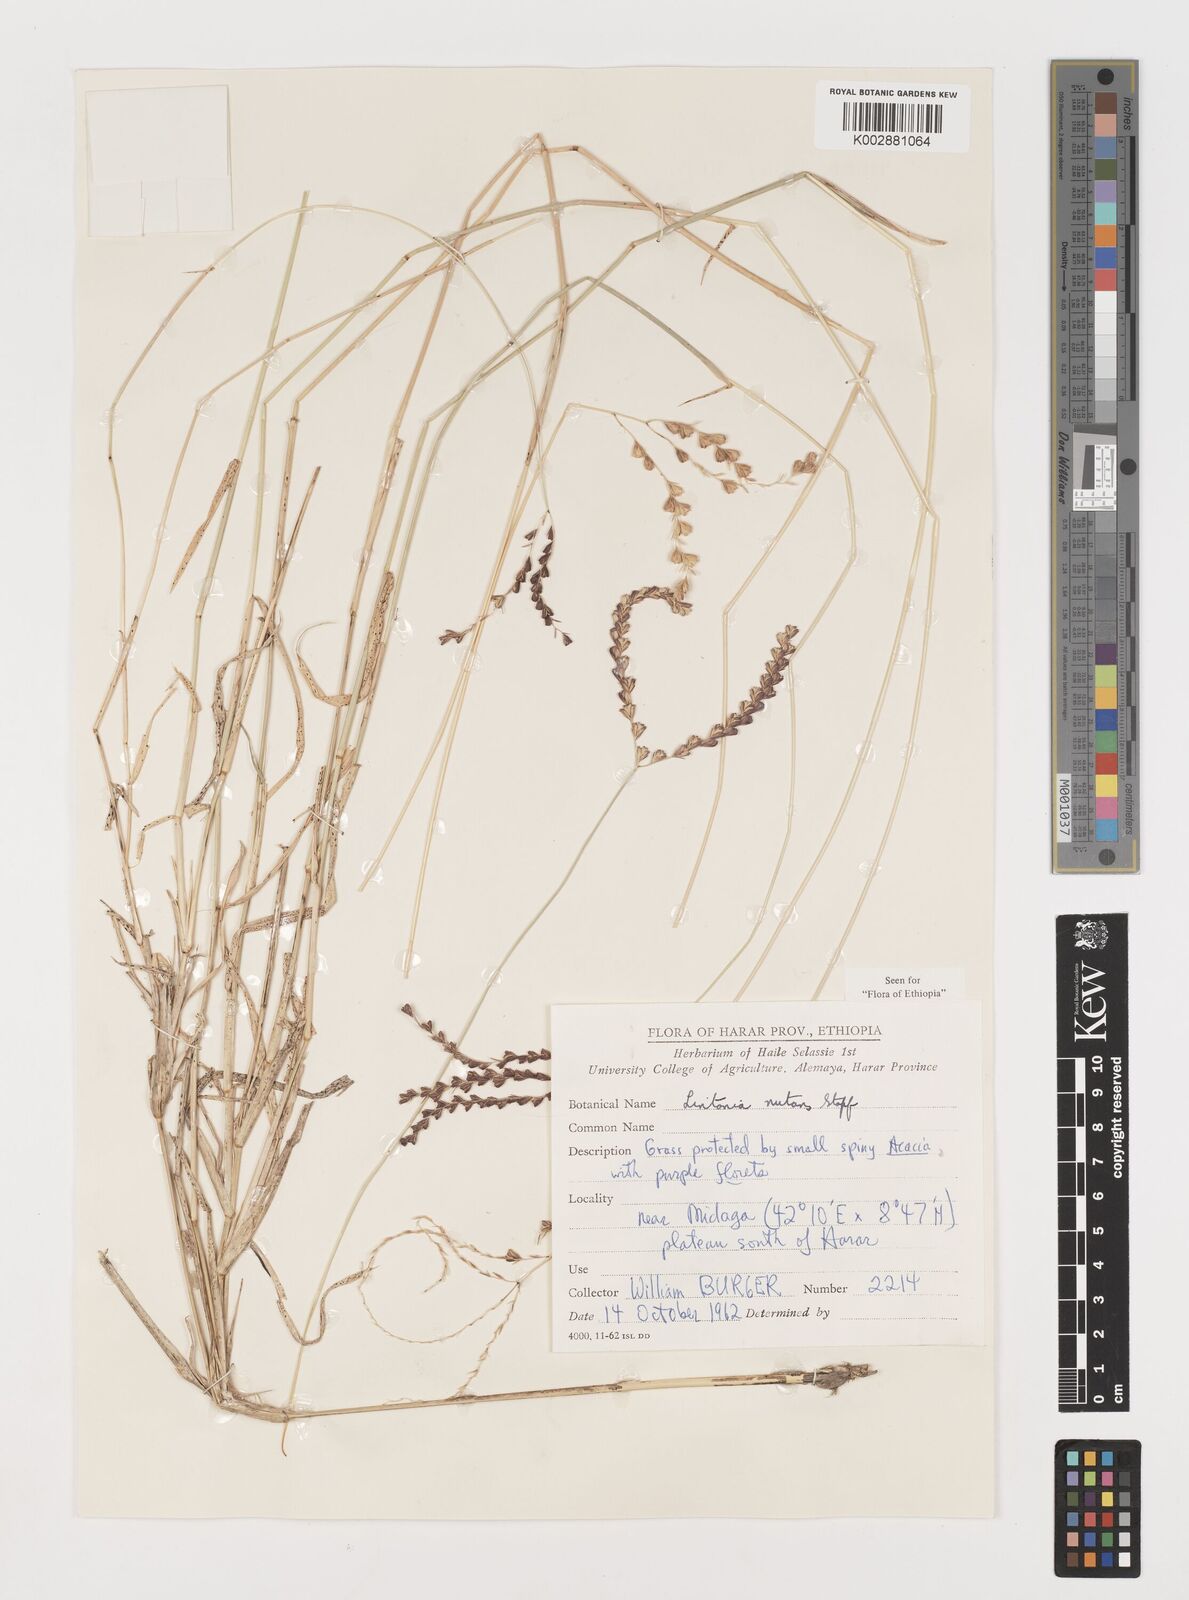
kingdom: Plantae
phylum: Tracheophyta
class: Liliopsida
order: Poales
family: Poaceae
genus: Chloris
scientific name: Chloris nutans
